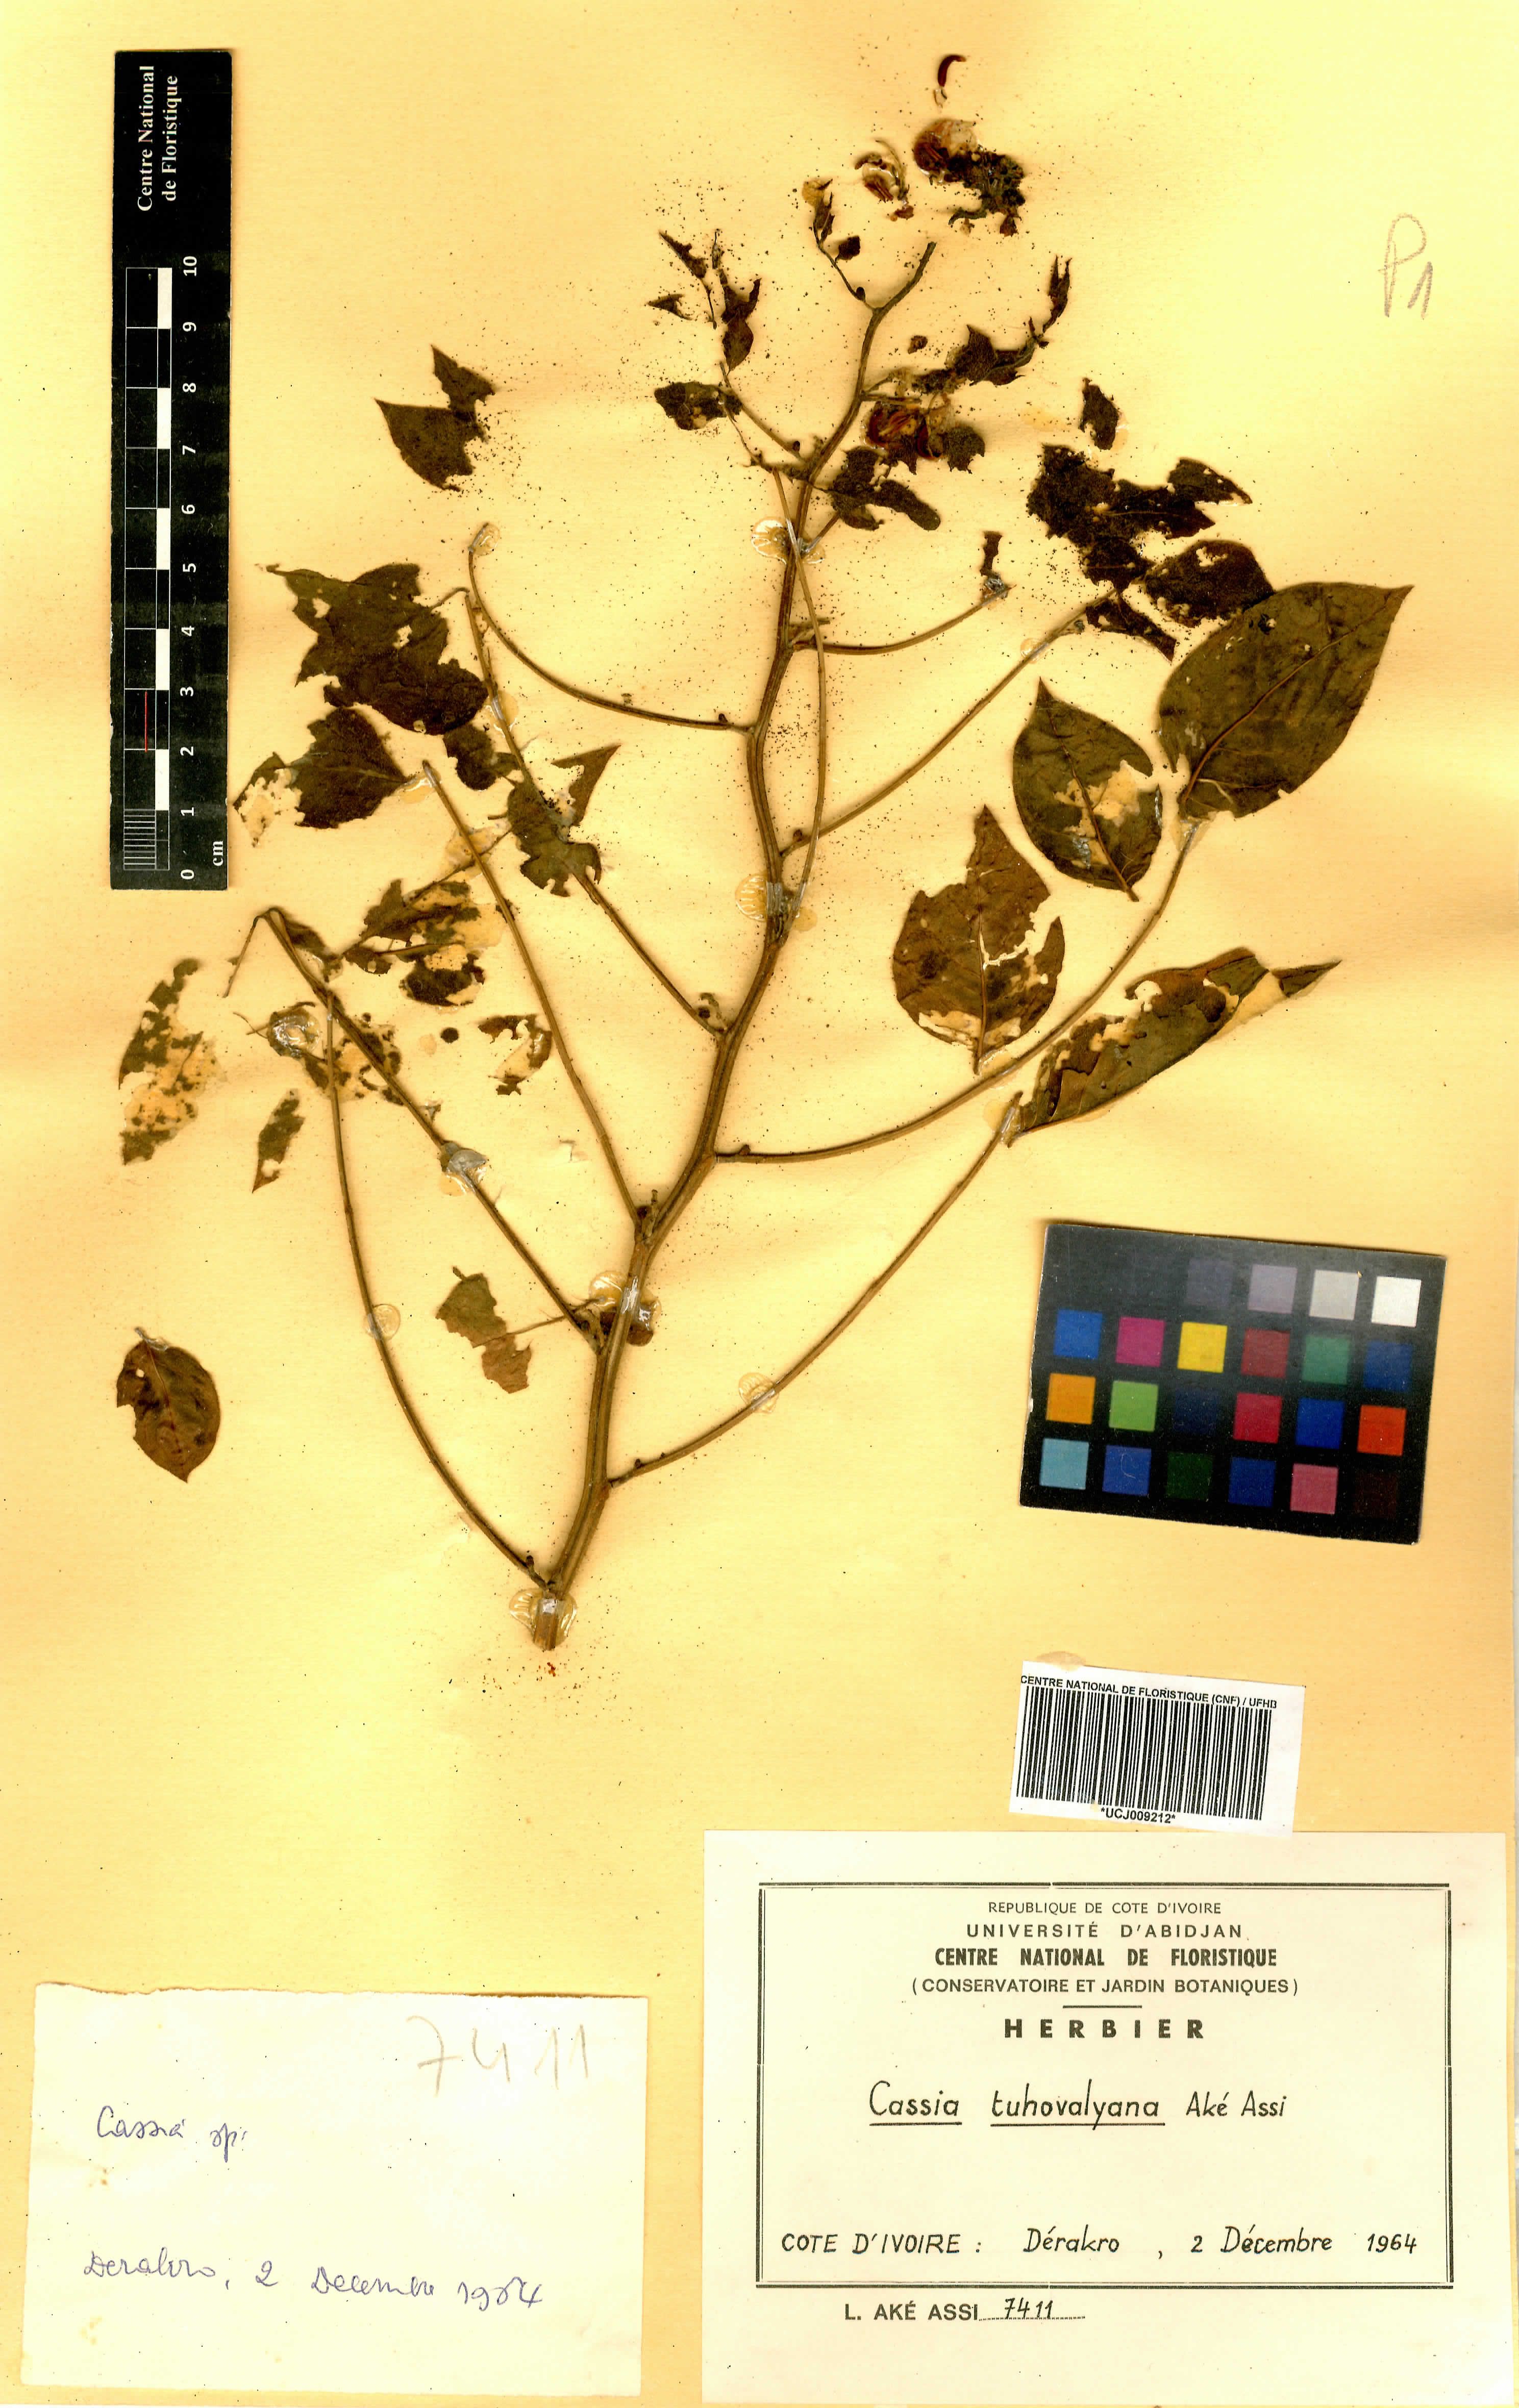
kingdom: Plantae
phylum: Tracheophyta
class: Magnoliopsida
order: Fabales
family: Fabaceae
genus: Senna
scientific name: Senna tuhovalyana
